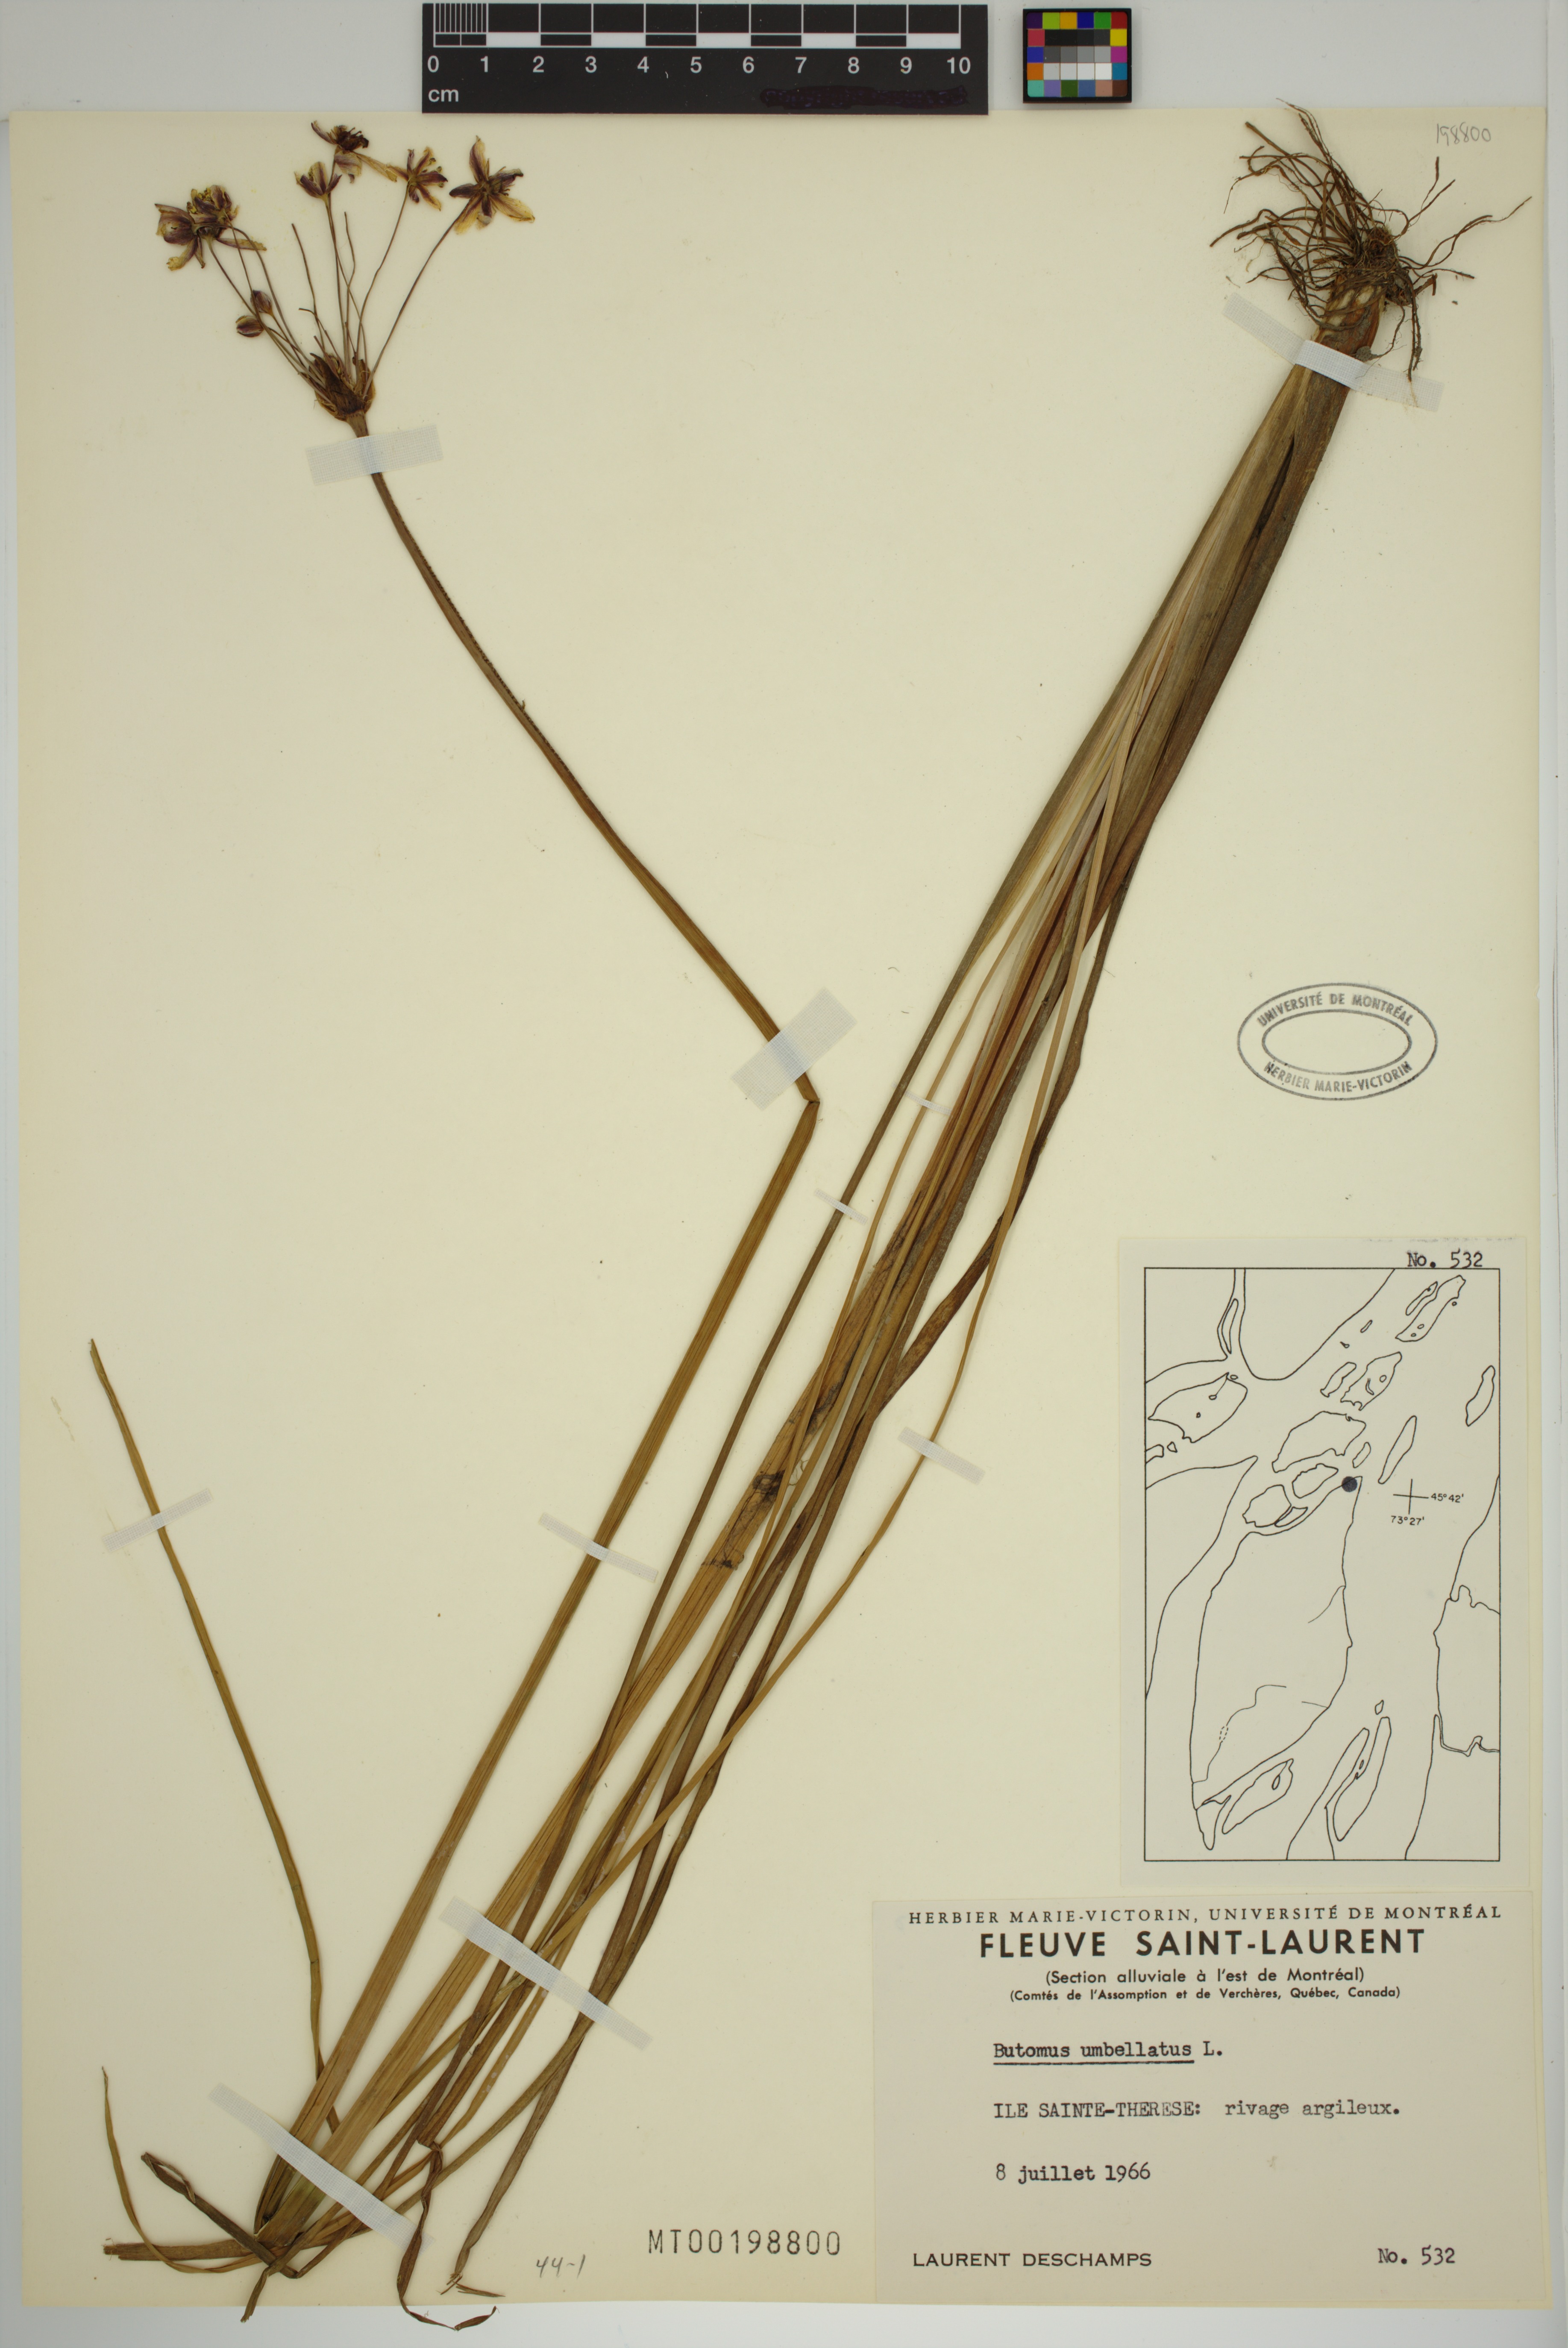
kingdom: Plantae
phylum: Tracheophyta
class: Liliopsida
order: Alismatales
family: Butomaceae
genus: Butomus
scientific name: Butomus umbellatus
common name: Flowering-rush
